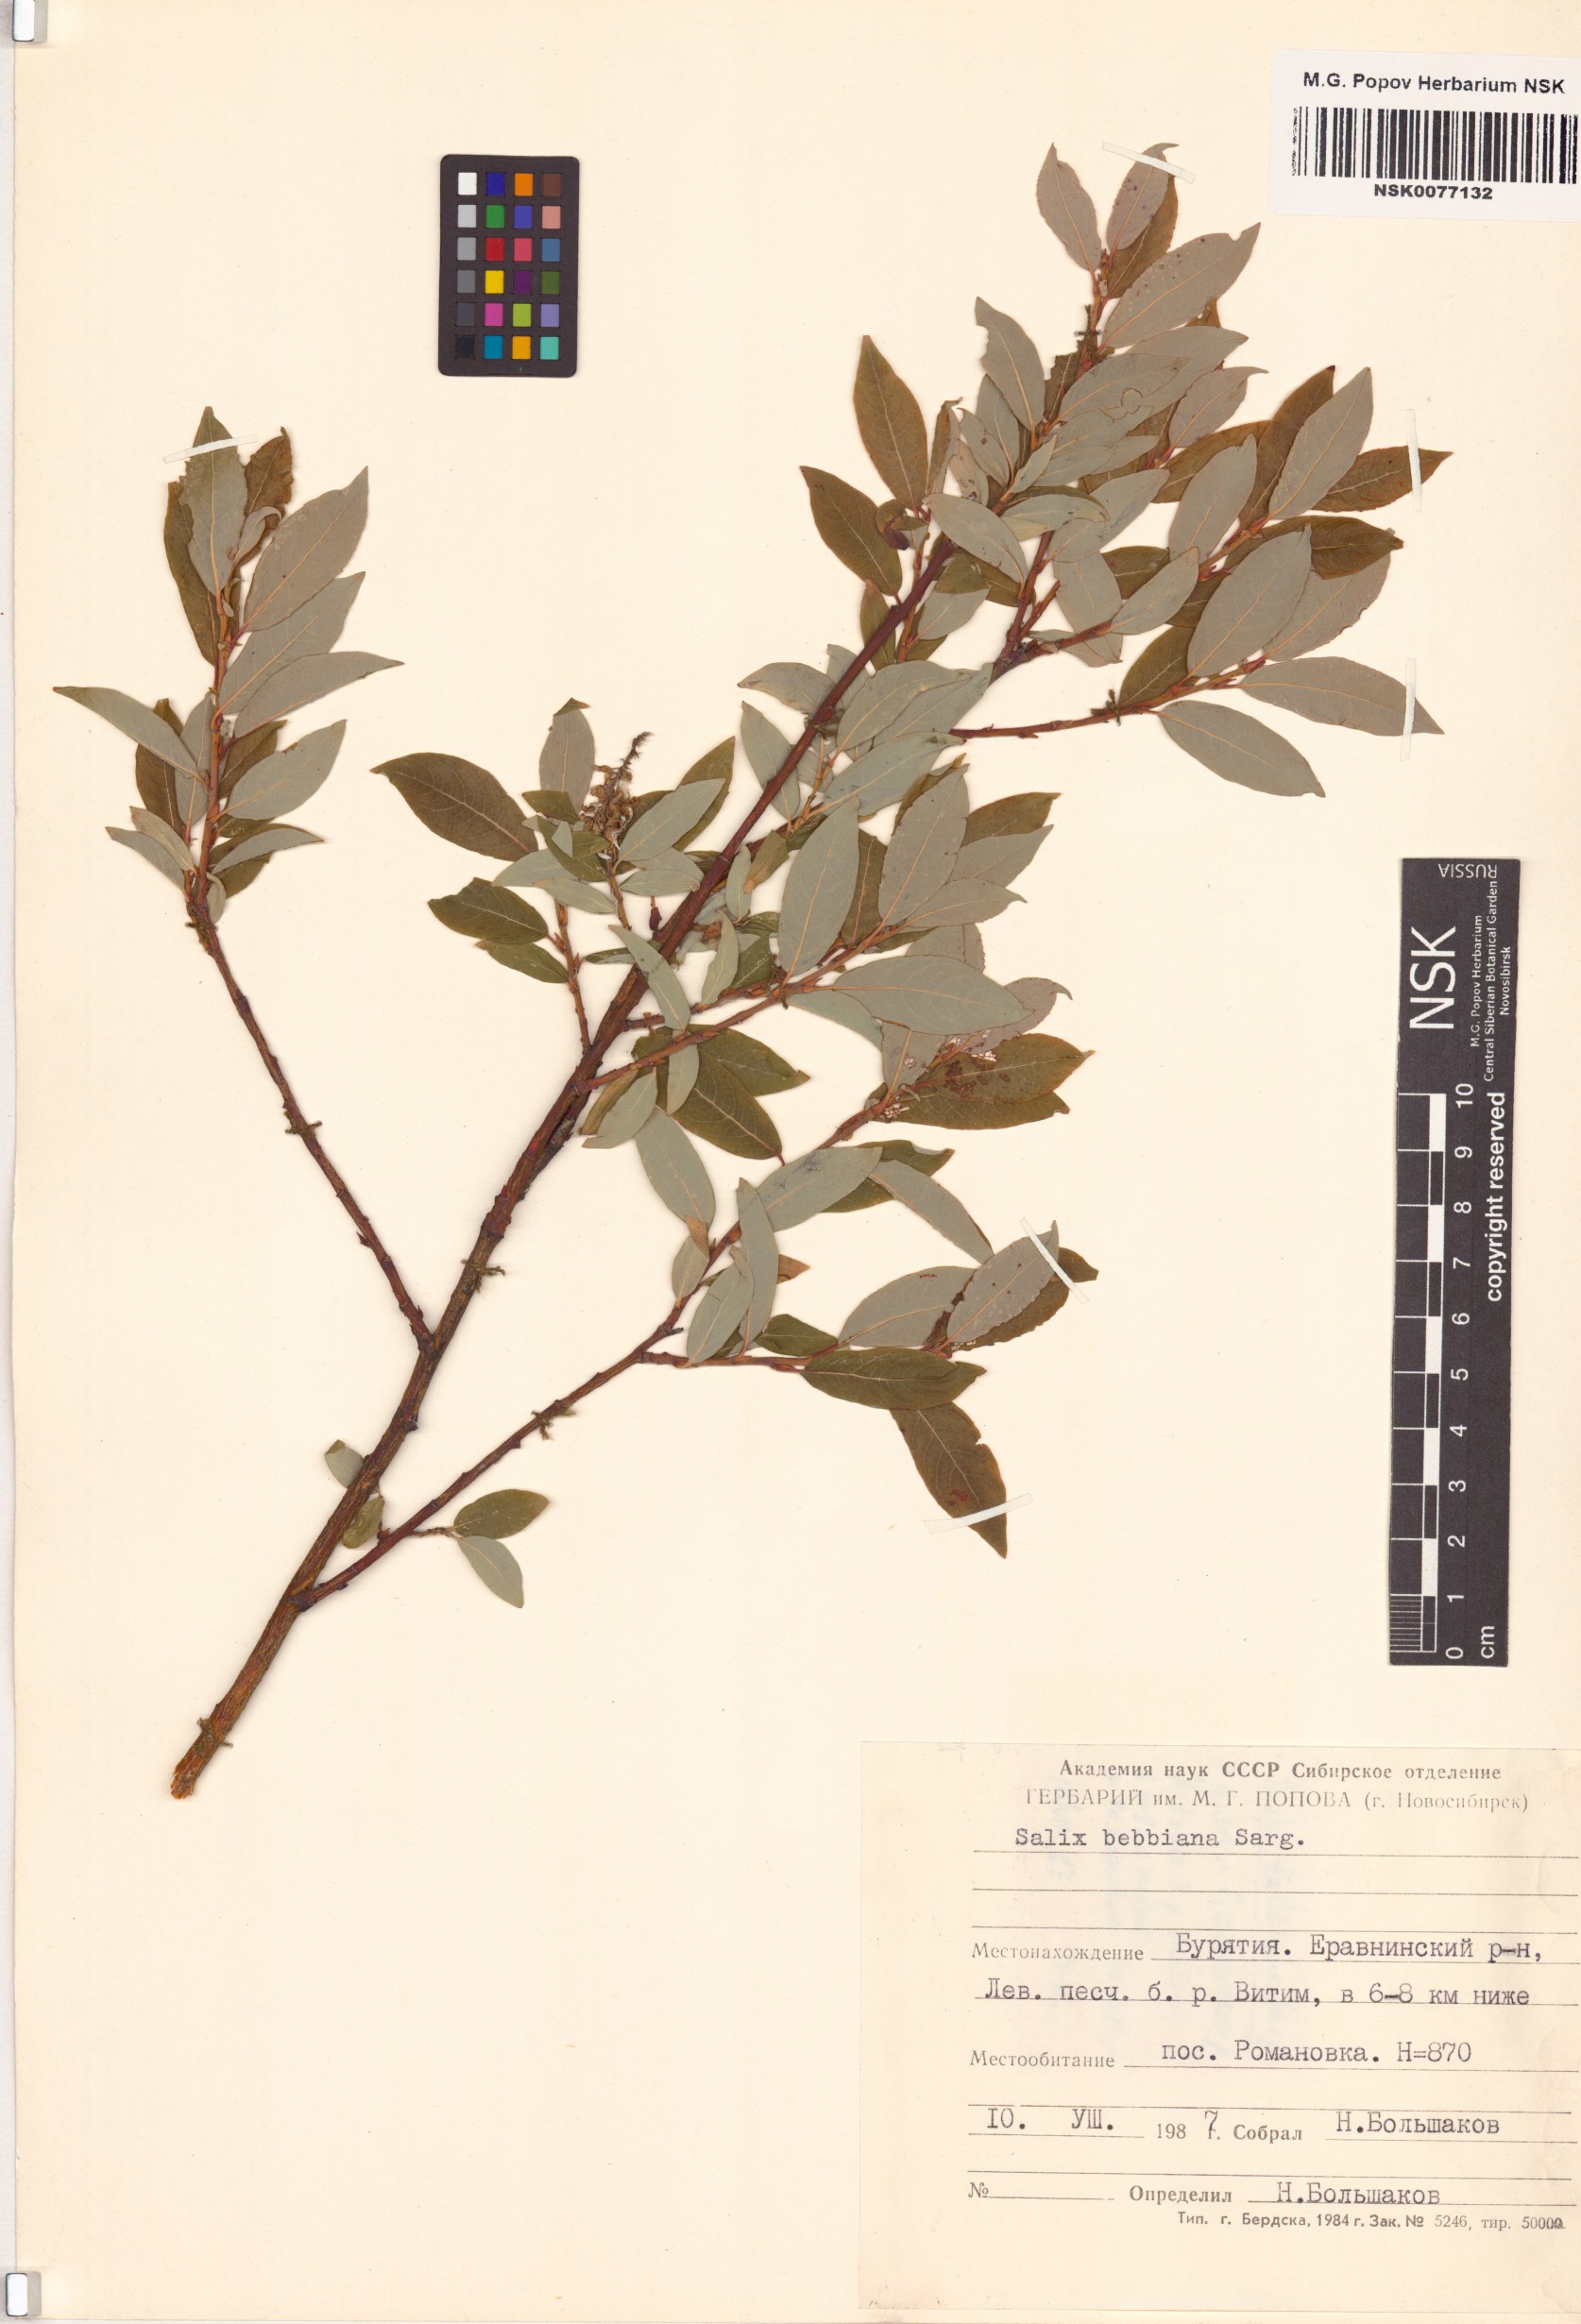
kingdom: Plantae
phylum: Tracheophyta
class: Magnoliopsida
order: Malpighiales
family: Salicaceae
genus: Salix
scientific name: Salix bebbiana
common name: Bebb's willow
